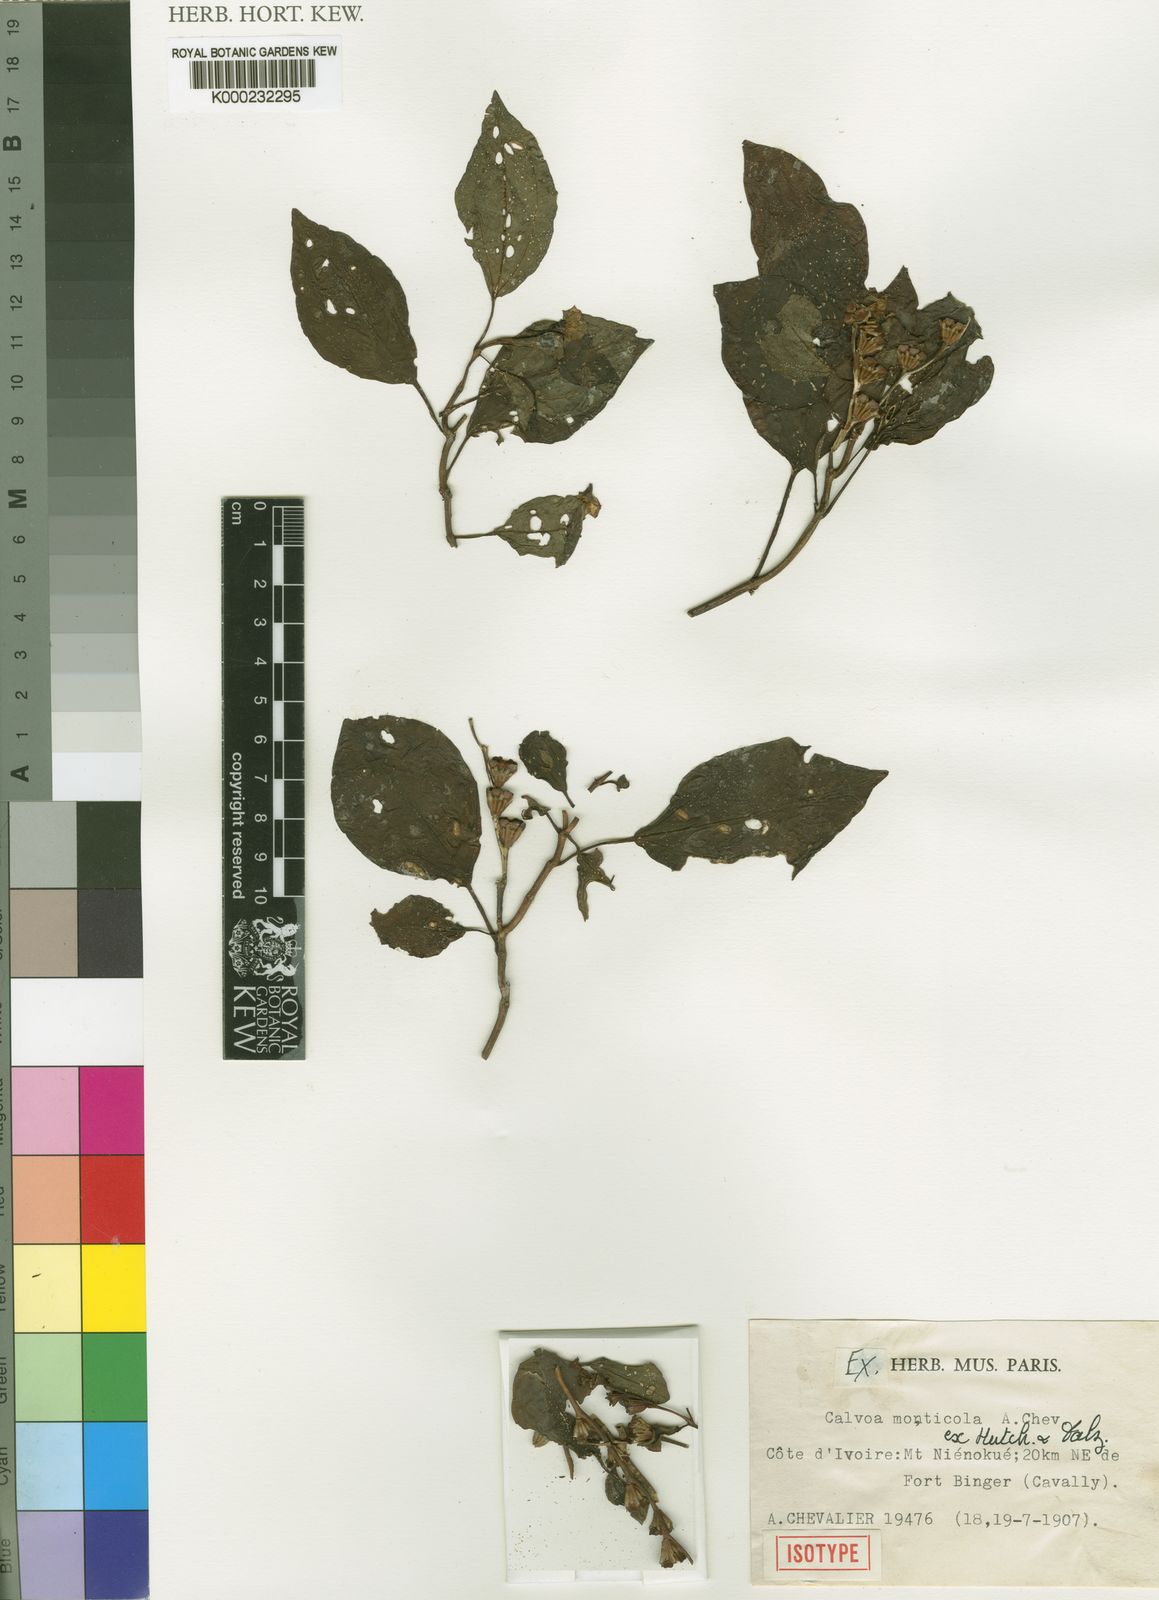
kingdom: Plantae
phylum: Tracheophyta
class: Magnoliopsida
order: Myrtales
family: Melastomataceae
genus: Calvoa
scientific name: Calvoa monticola
